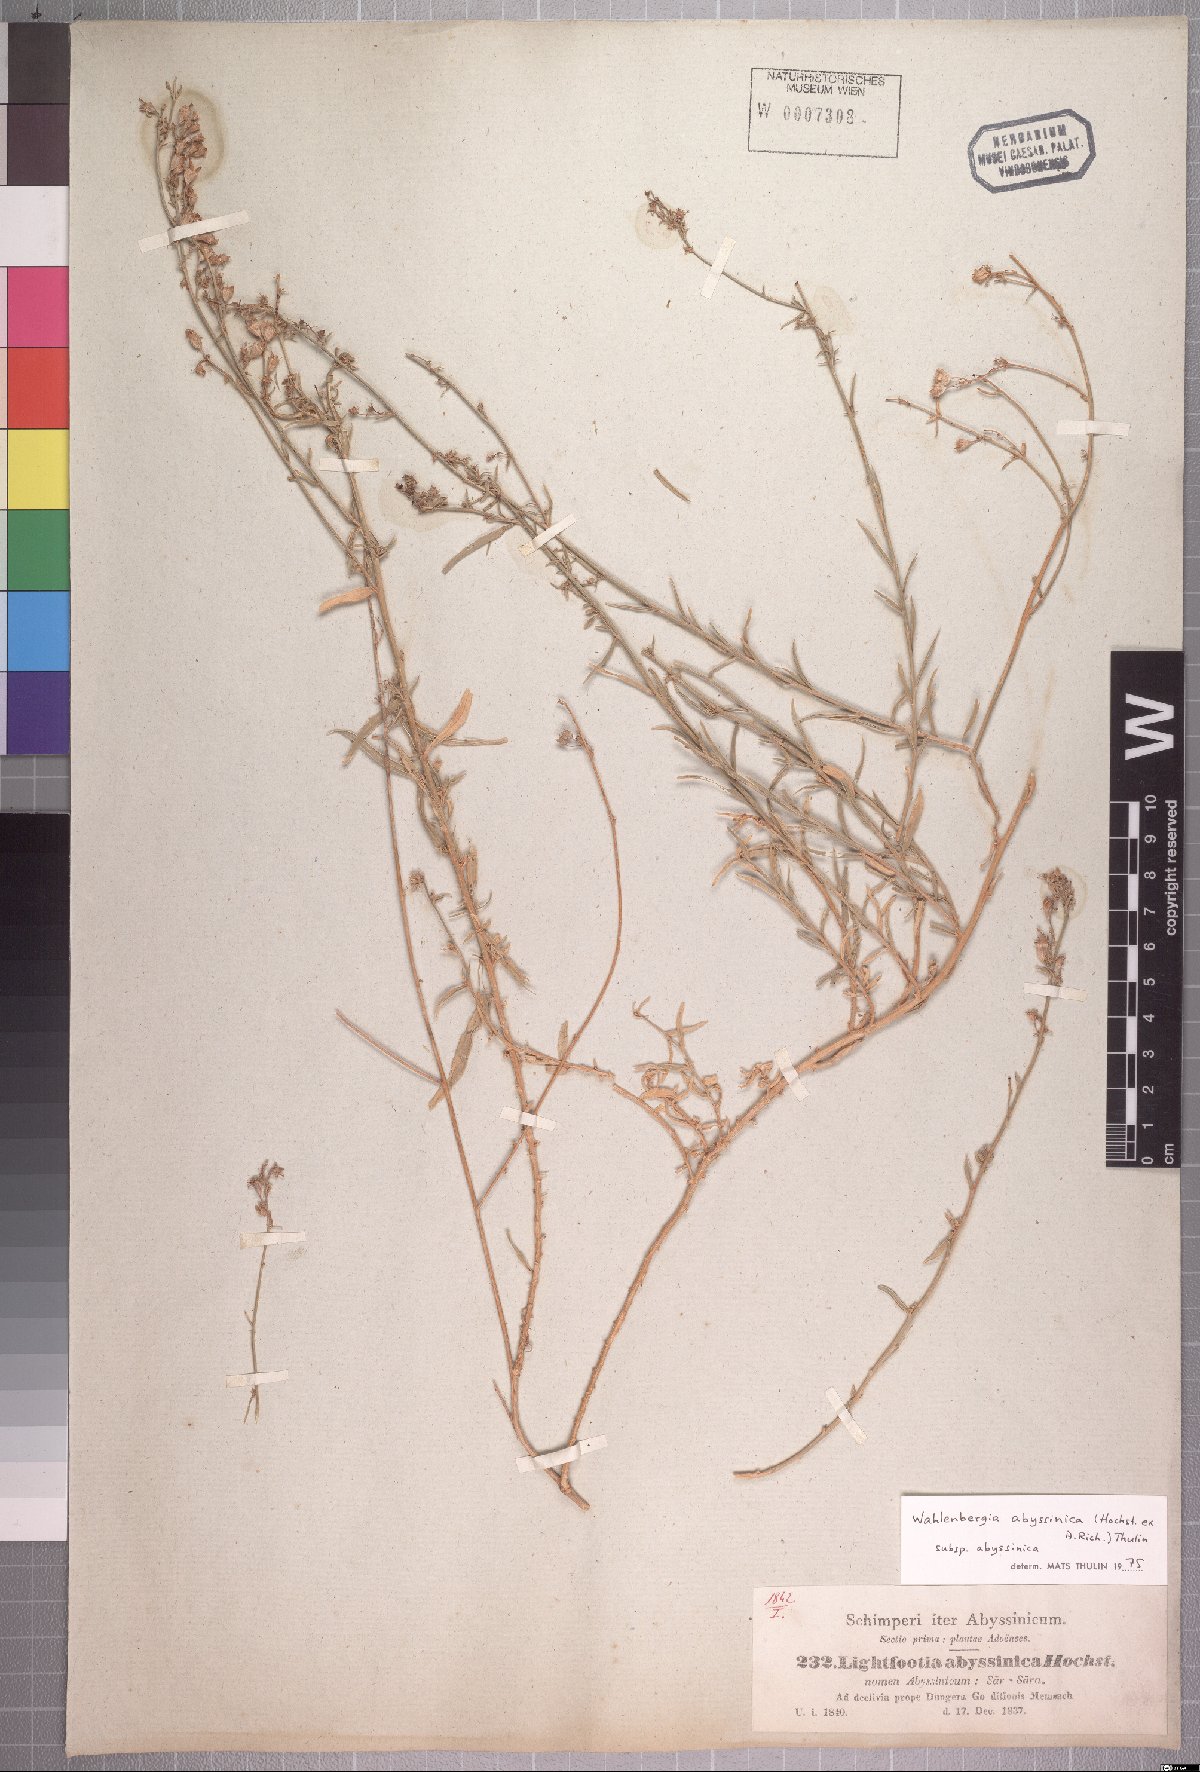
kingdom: Plantae
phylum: Tracheophyta
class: Magnoliopsida
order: Asterales
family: Campanulaceae
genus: Wahlenbergia
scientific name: Wahlenbergia abyssinica
